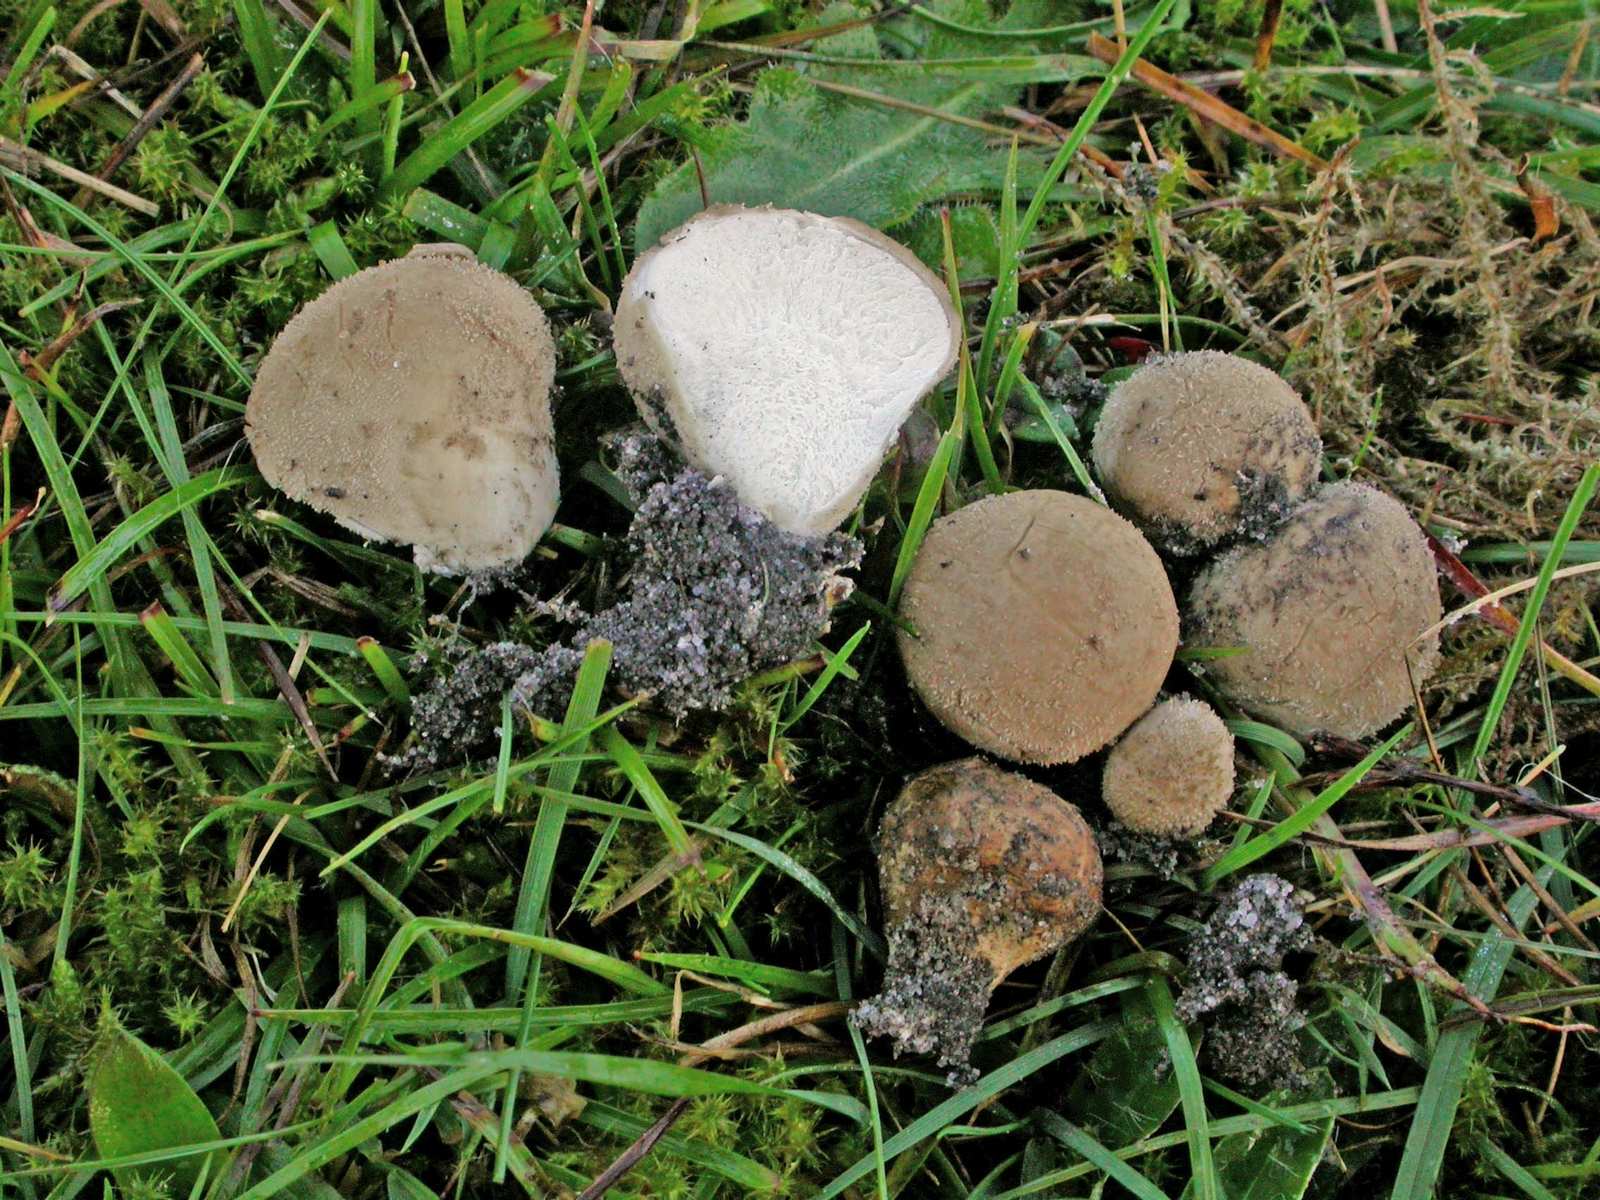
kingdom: Fungi
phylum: Basidiomycota
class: Agaricomycetes
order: Agaricales
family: Lycoperdaceae
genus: Lycoperdon
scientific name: Lycoperdon lividum
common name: mark-støvbold
